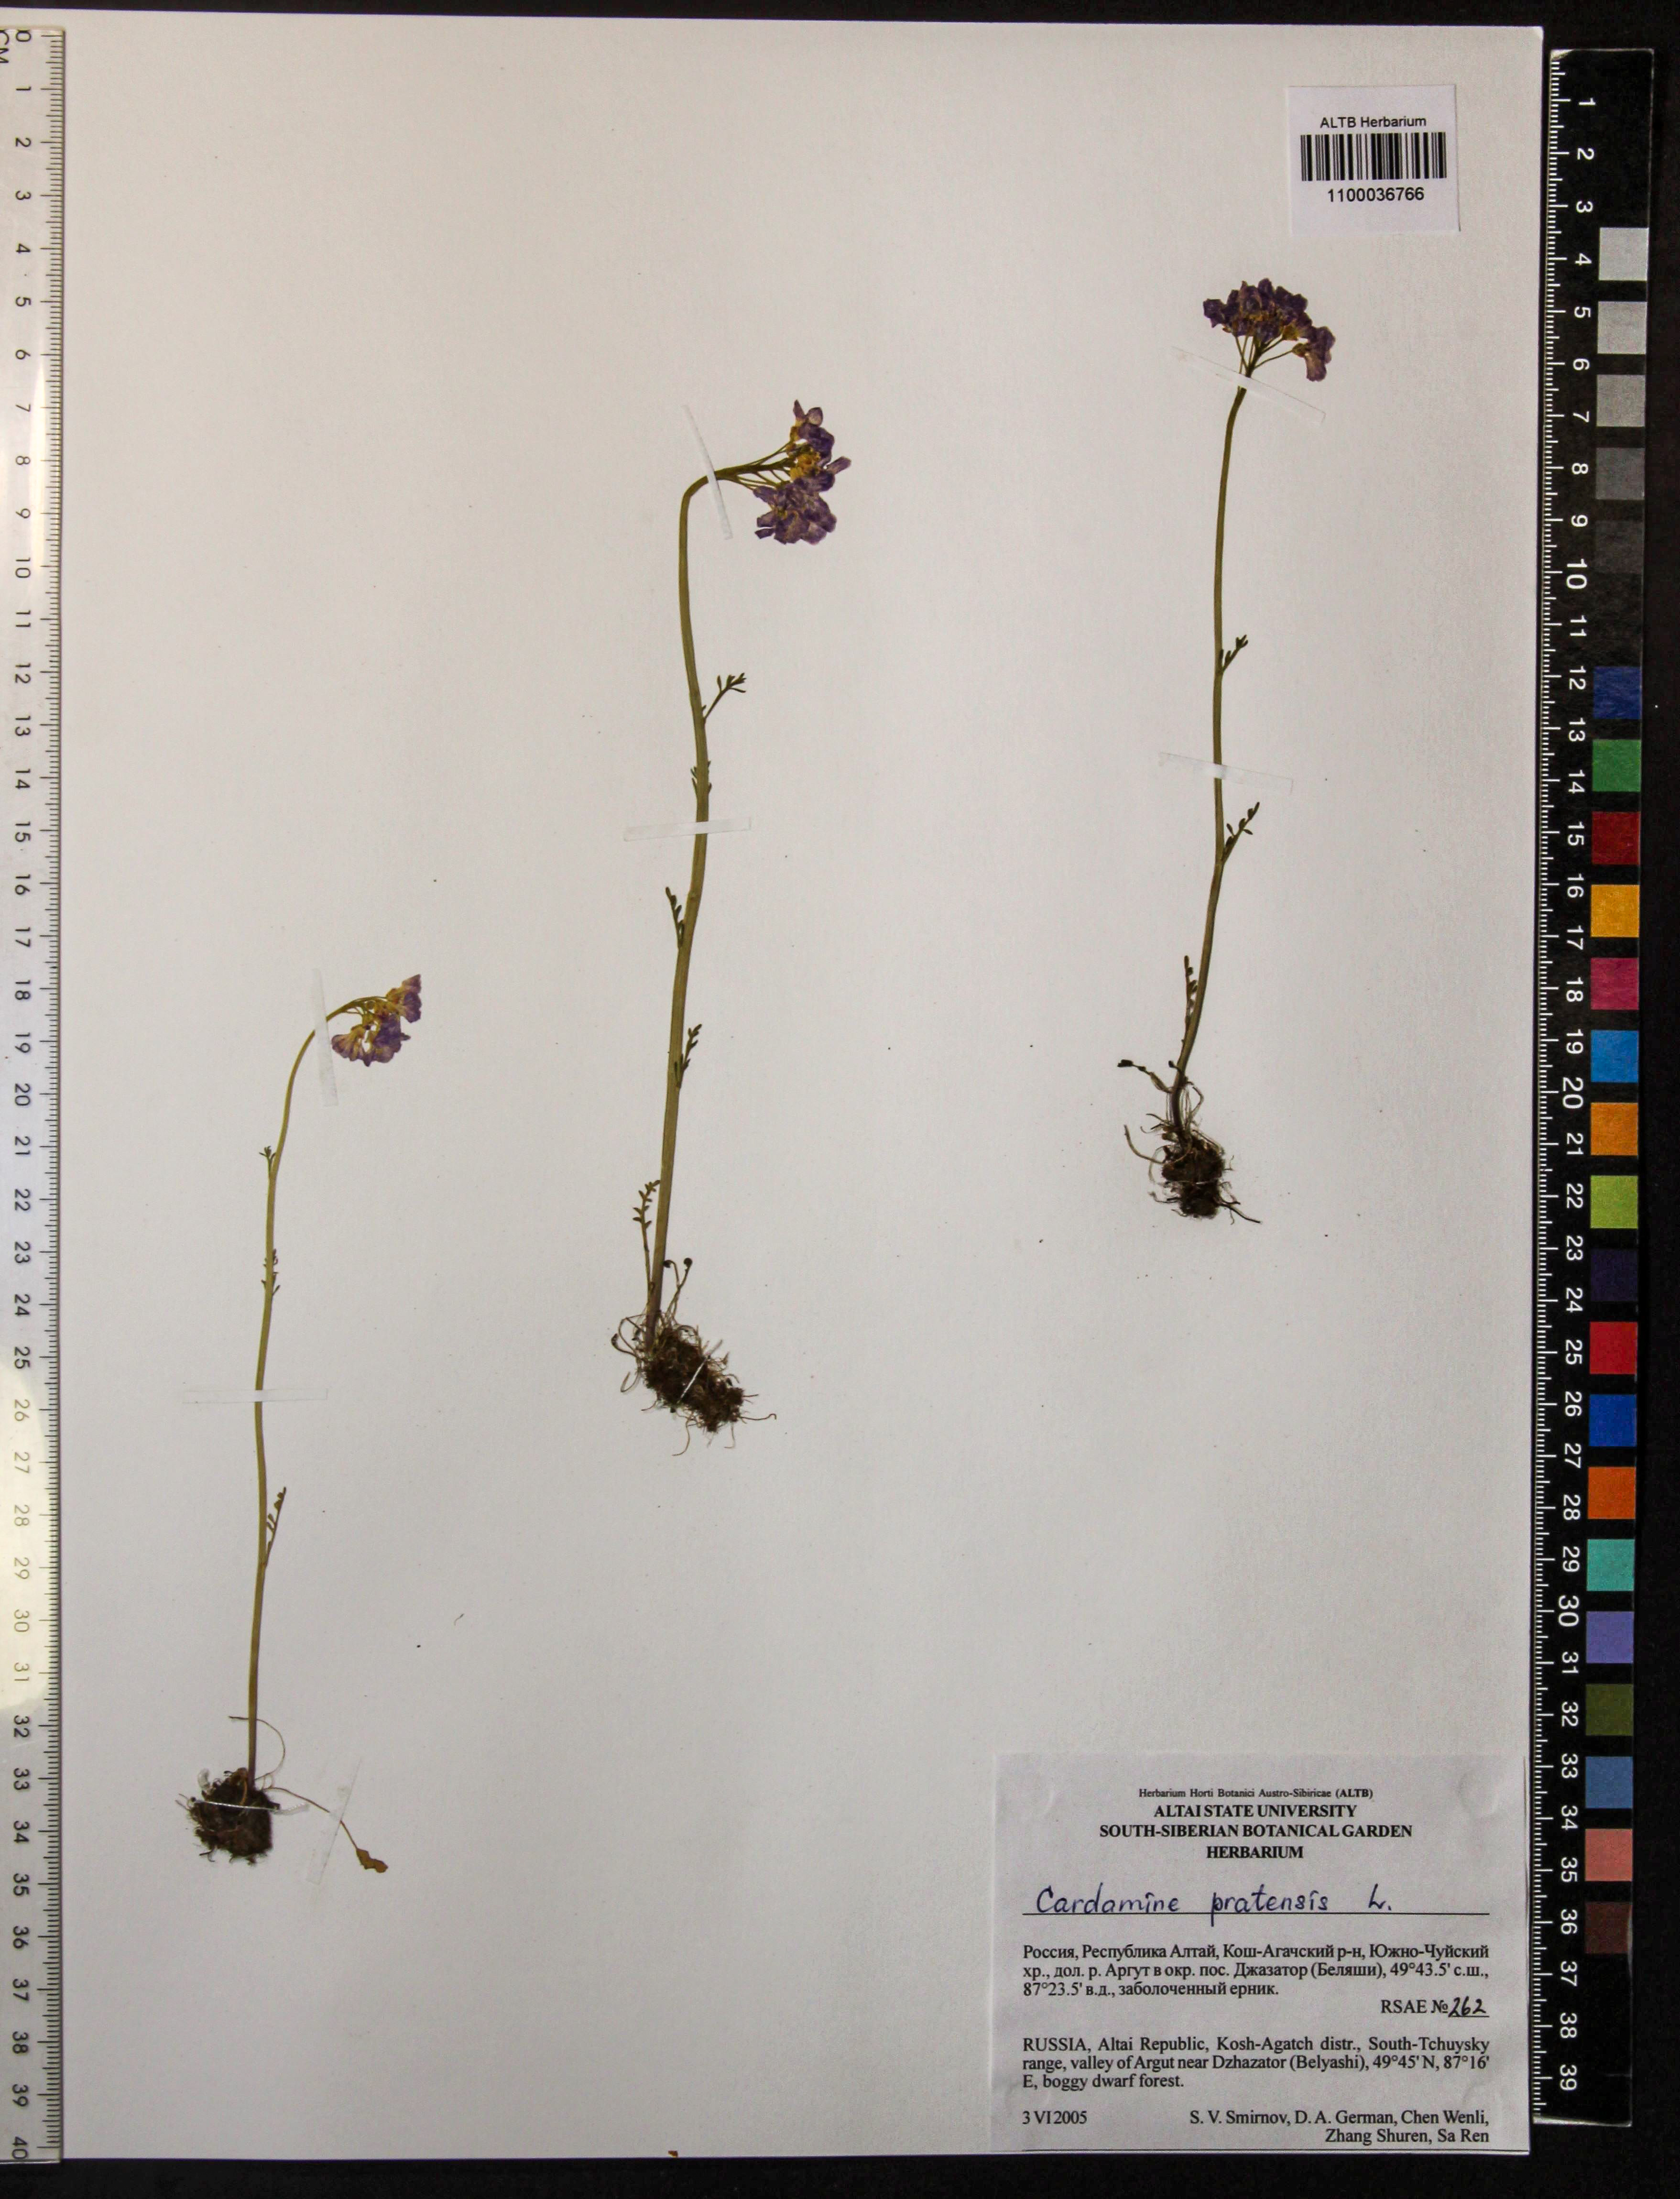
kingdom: Plantae
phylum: Tracheophyta
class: Magnoliopsida
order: Brassicales
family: Brassicaceae
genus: Cardamine
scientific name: Cardamine pratensis
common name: Cuckoo flower
